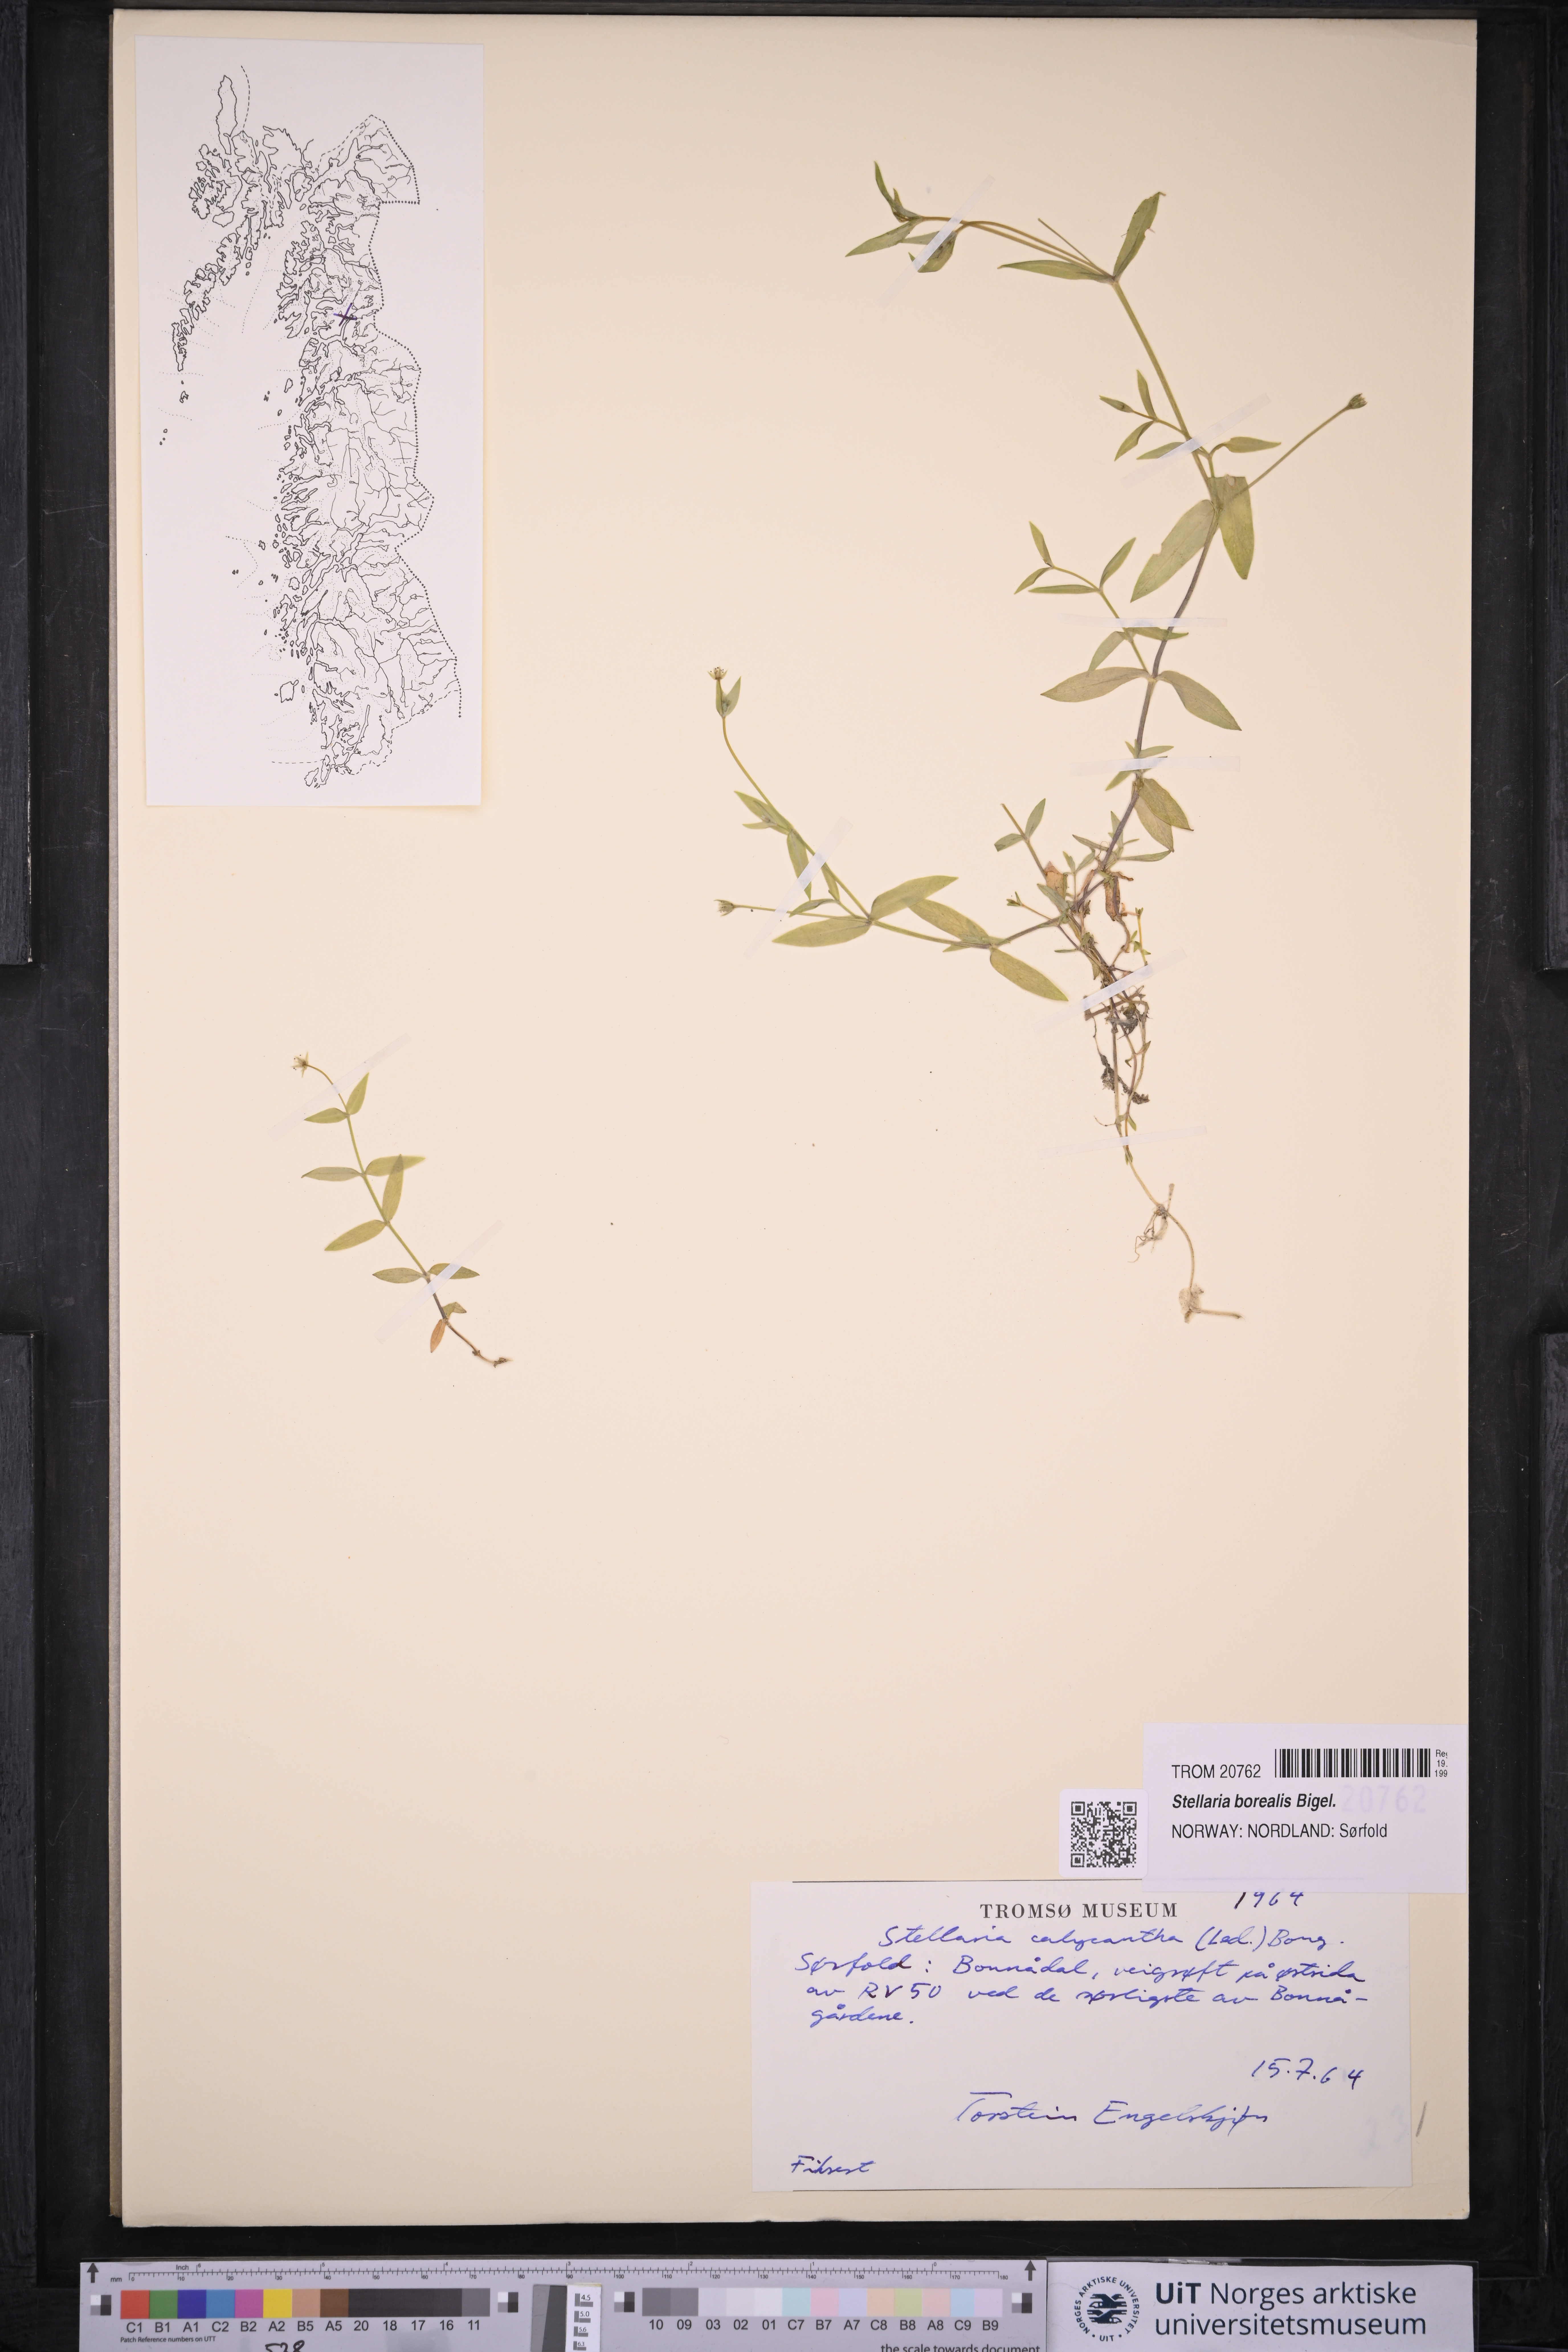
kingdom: Plantae
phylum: Tracheophyta
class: Magnoliopsida
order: Caryophyllales
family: Caryophyllaceae
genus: Stellaria
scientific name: Stellaria borealis
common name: Boreal starwort
